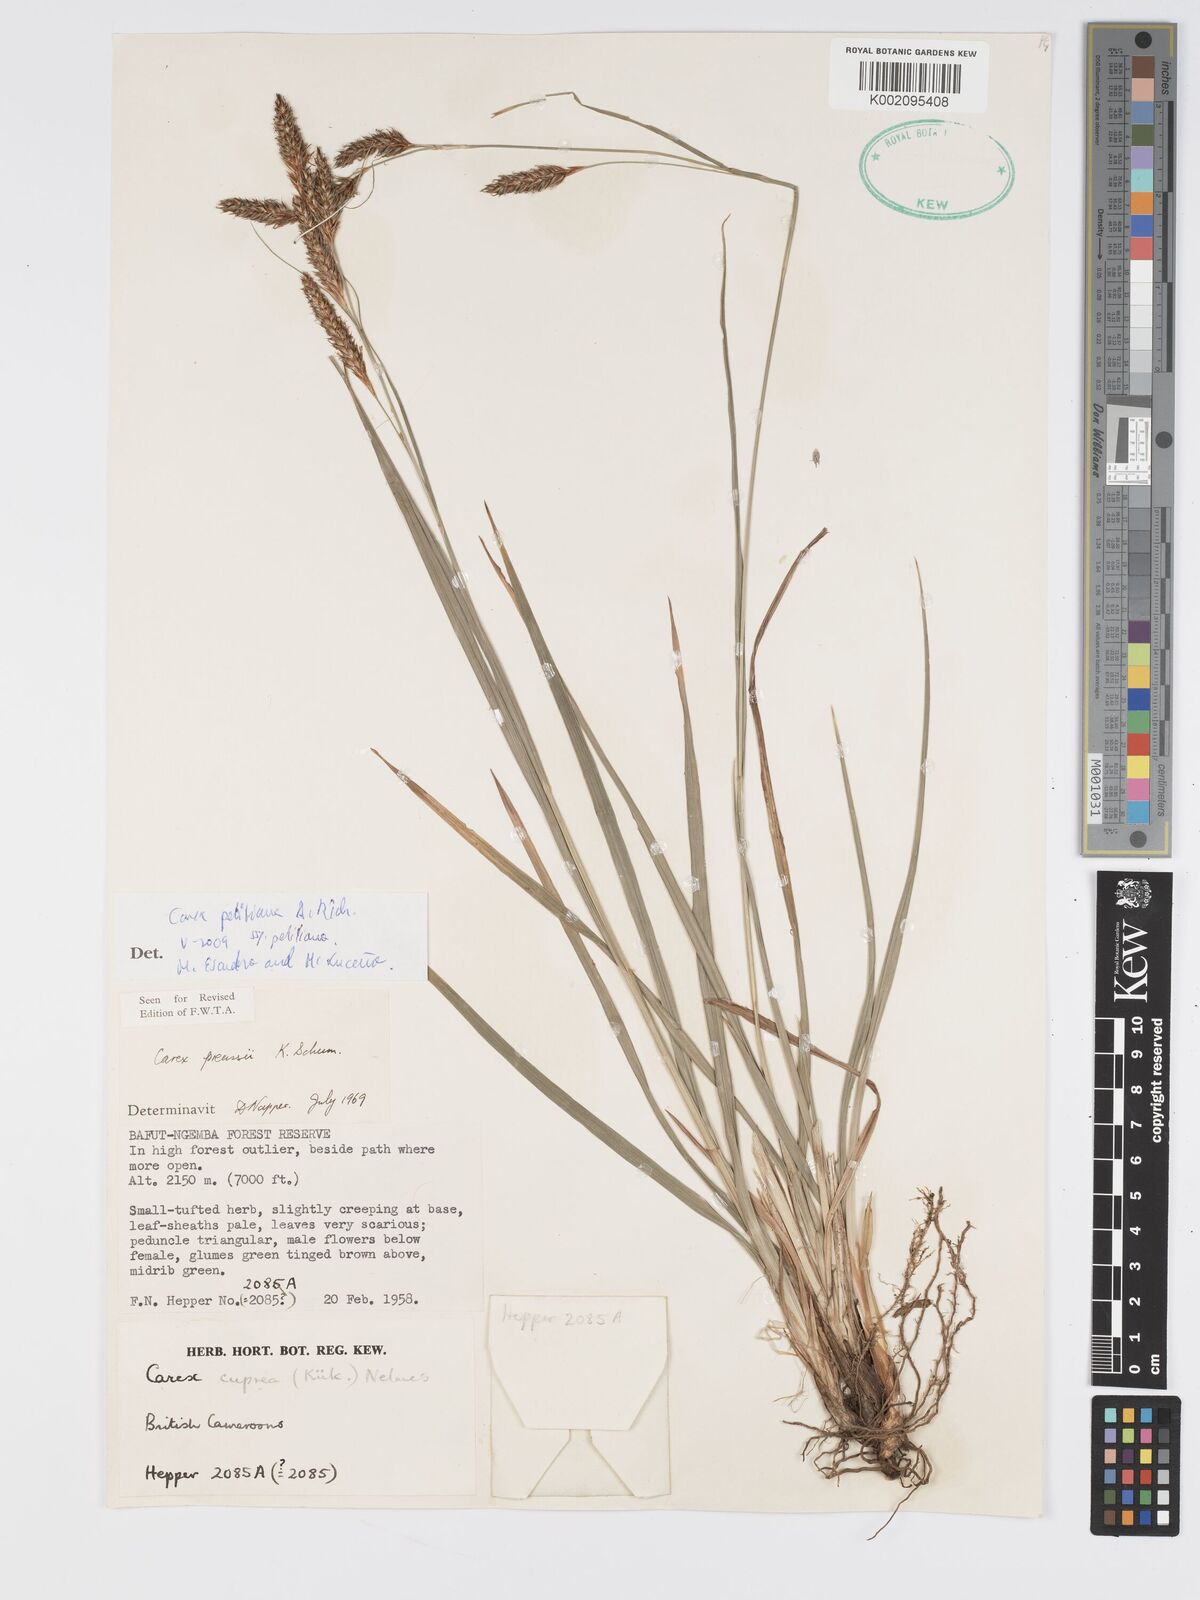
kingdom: Plantae
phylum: Tracheophyta
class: Liliopsida
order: Poales
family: Cyperaceae
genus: Carex
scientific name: Carex petitiana
